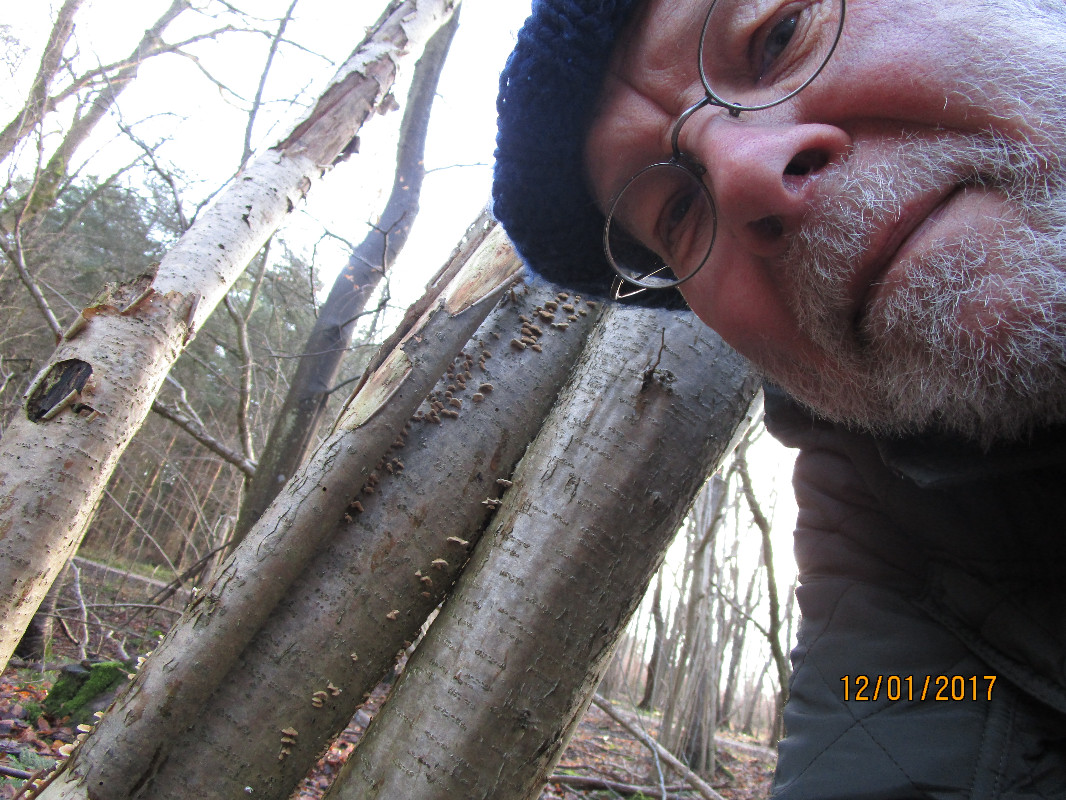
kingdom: Fungi
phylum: Basidiomycota
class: Agaricomycetes
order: Amylocorticiales
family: Amylocorticiaceae
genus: Plicaturopsis
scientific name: Plicaturopsis crispa
